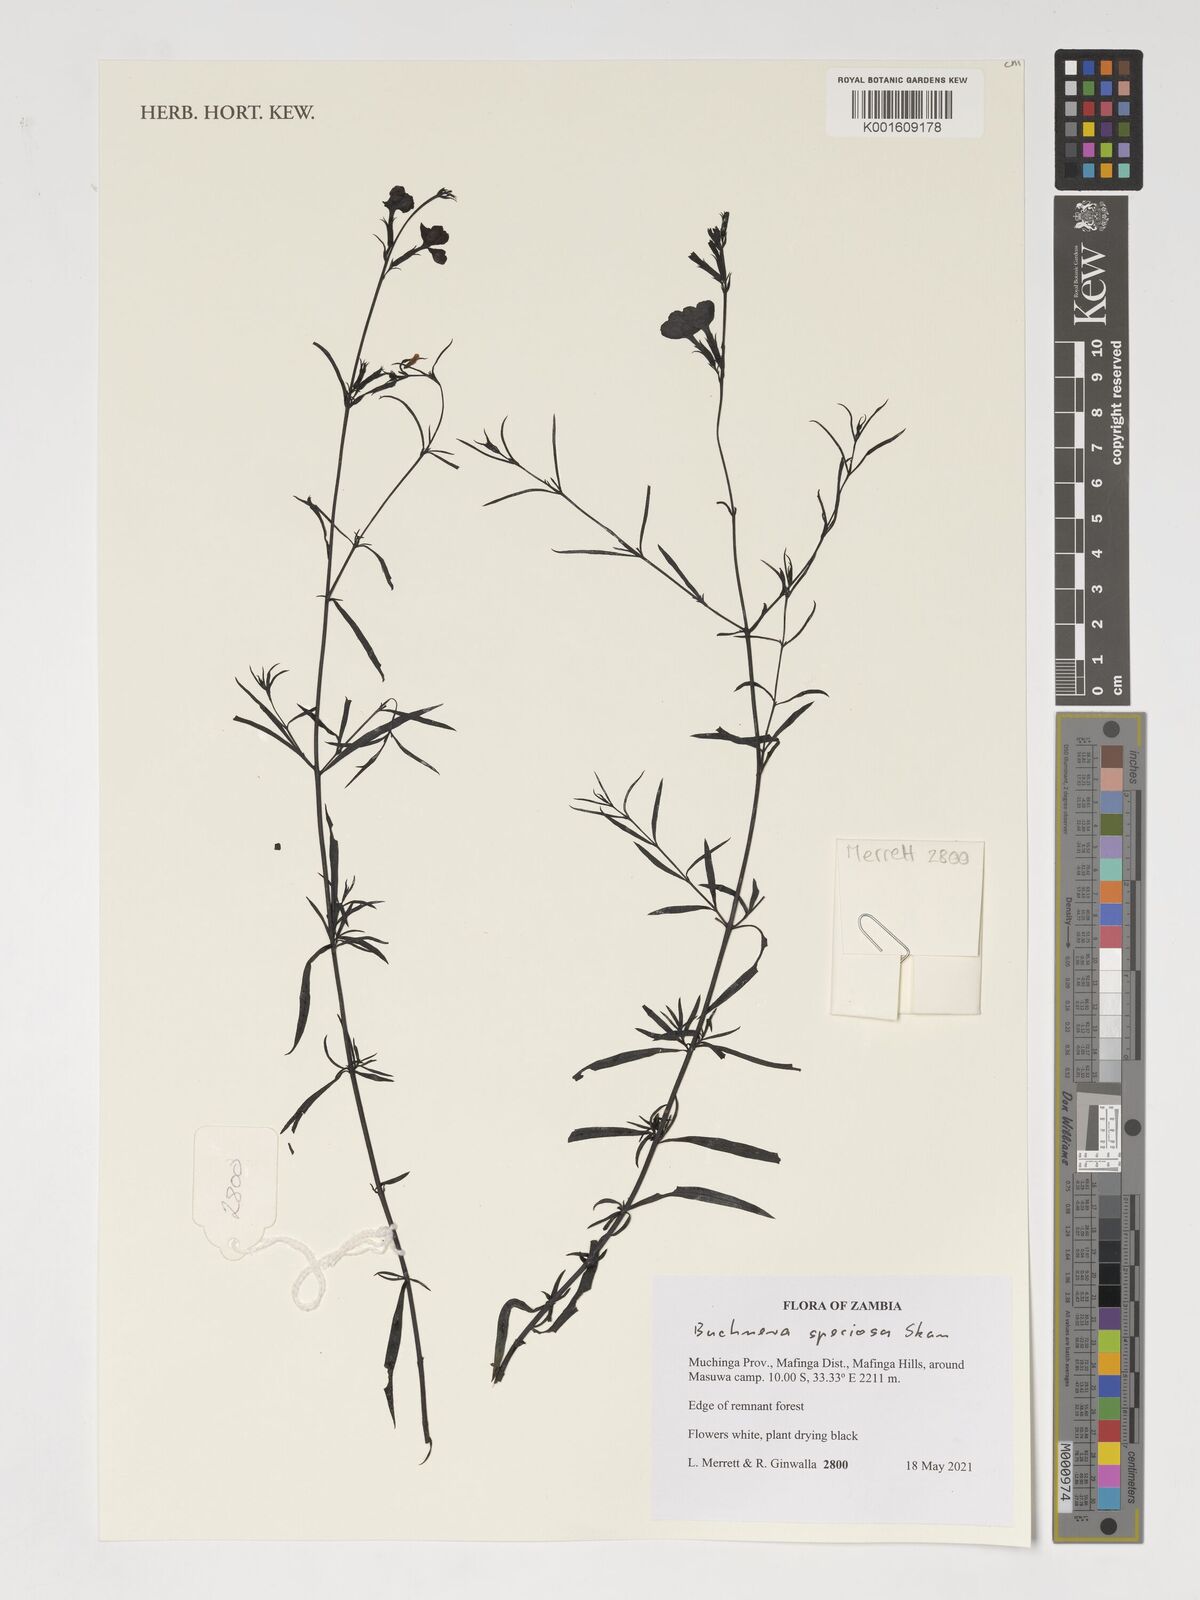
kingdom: Plantae
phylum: Tracheophyta
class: Magnoliopsida
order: Lamiales
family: Orobanchaceae
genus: Buchnera
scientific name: Buchnera speciosa
